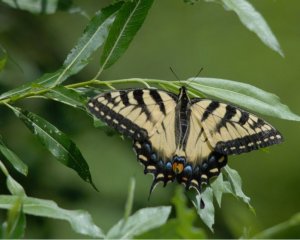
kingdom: Animalia
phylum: Arthropoda
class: Insecta
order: Lepidoptera
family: Papilionidae
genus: Pterourus
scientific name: Pterourus canadensis
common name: Canadian Tiger Swallowtail
